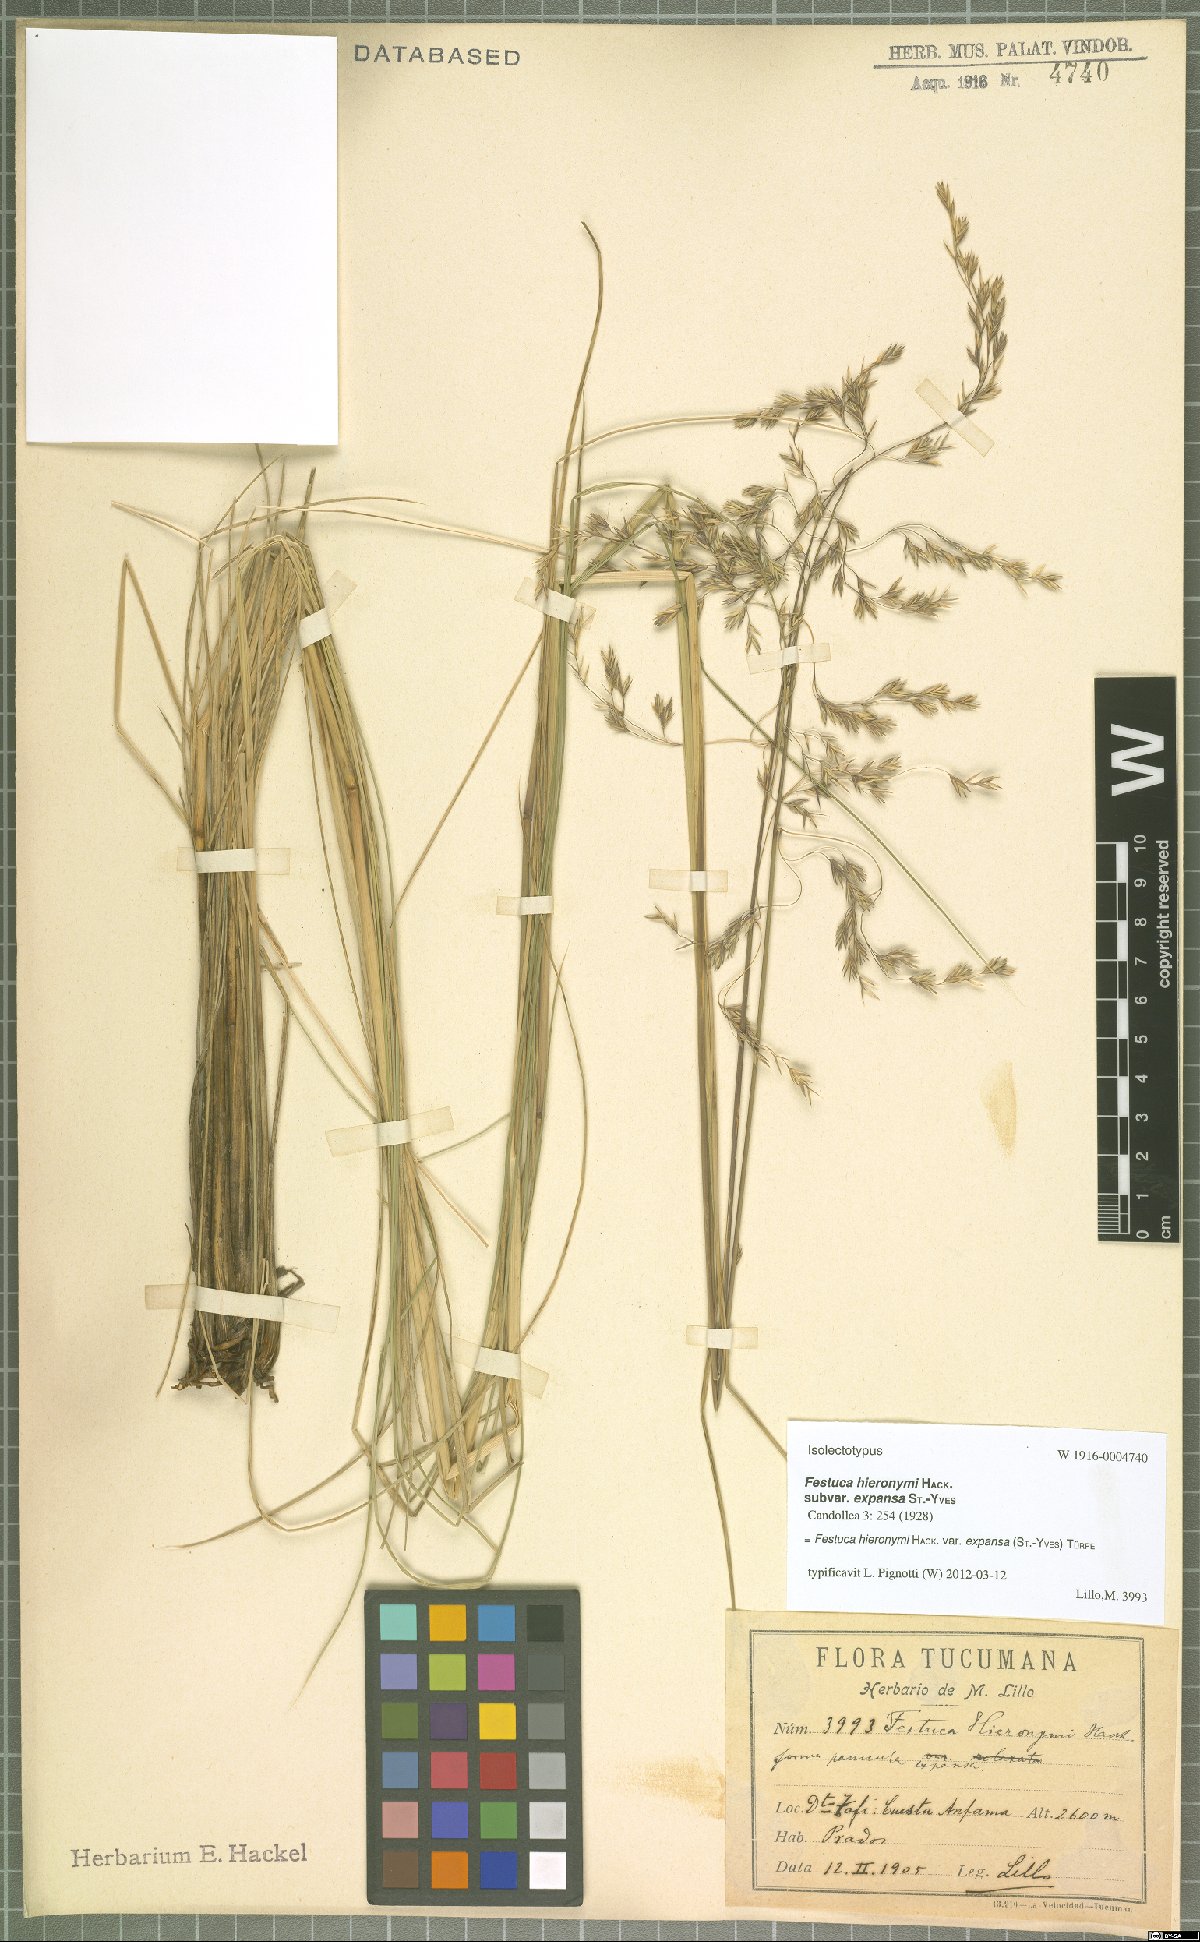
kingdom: Plantae
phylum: Tracheophyta
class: Liliopsida
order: Poales
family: Poaceae
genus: Festuca
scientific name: Festuca fiebrigii
